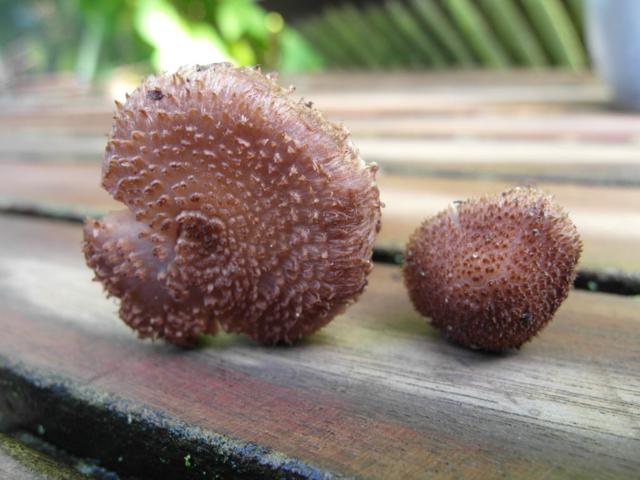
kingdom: Fungi
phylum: Basidiomycota
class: Agaricomycetes
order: Agaricales
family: Inocybaceae
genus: Inocybe
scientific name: Inocybe cincinnata
